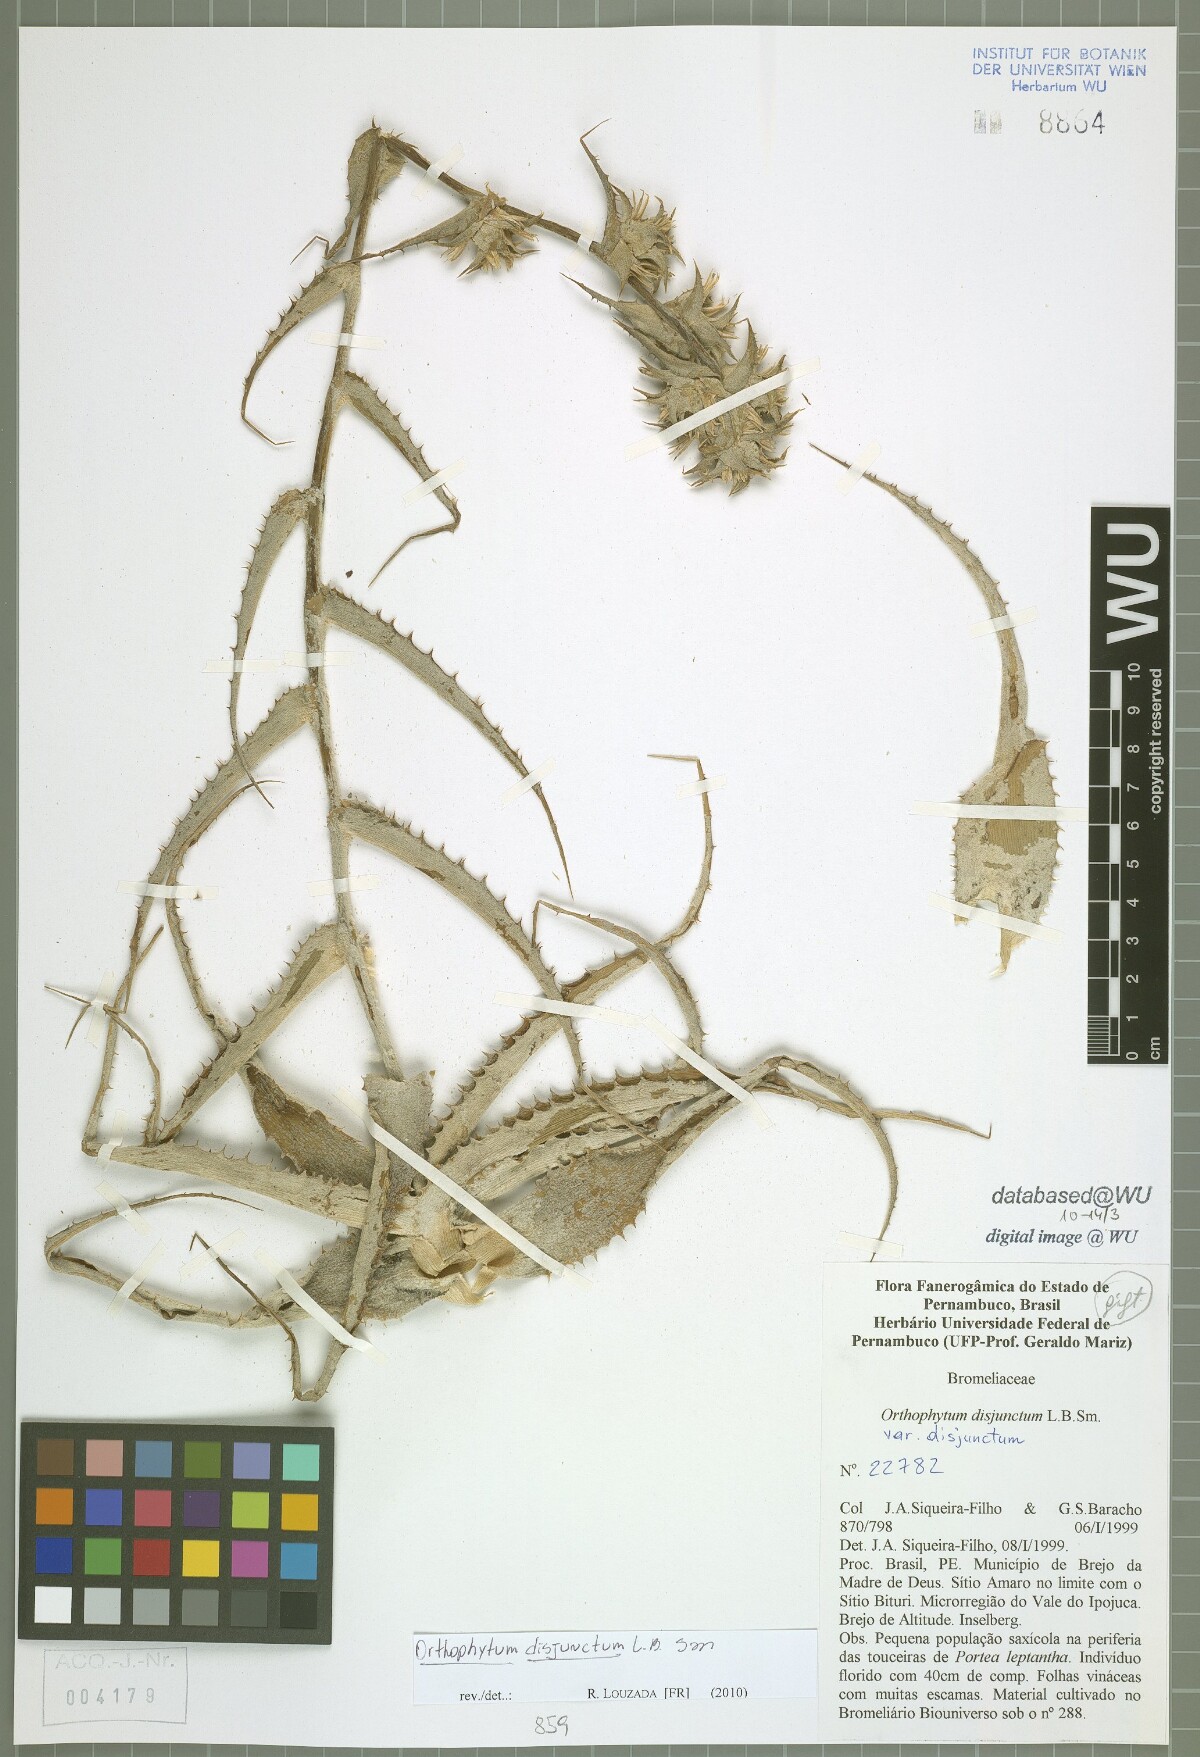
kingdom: Plantae
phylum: Tracheophyta
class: Liliopsida
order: Poales
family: Bromeliaceae
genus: Orthophytum
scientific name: Orthophytum disjunctum
